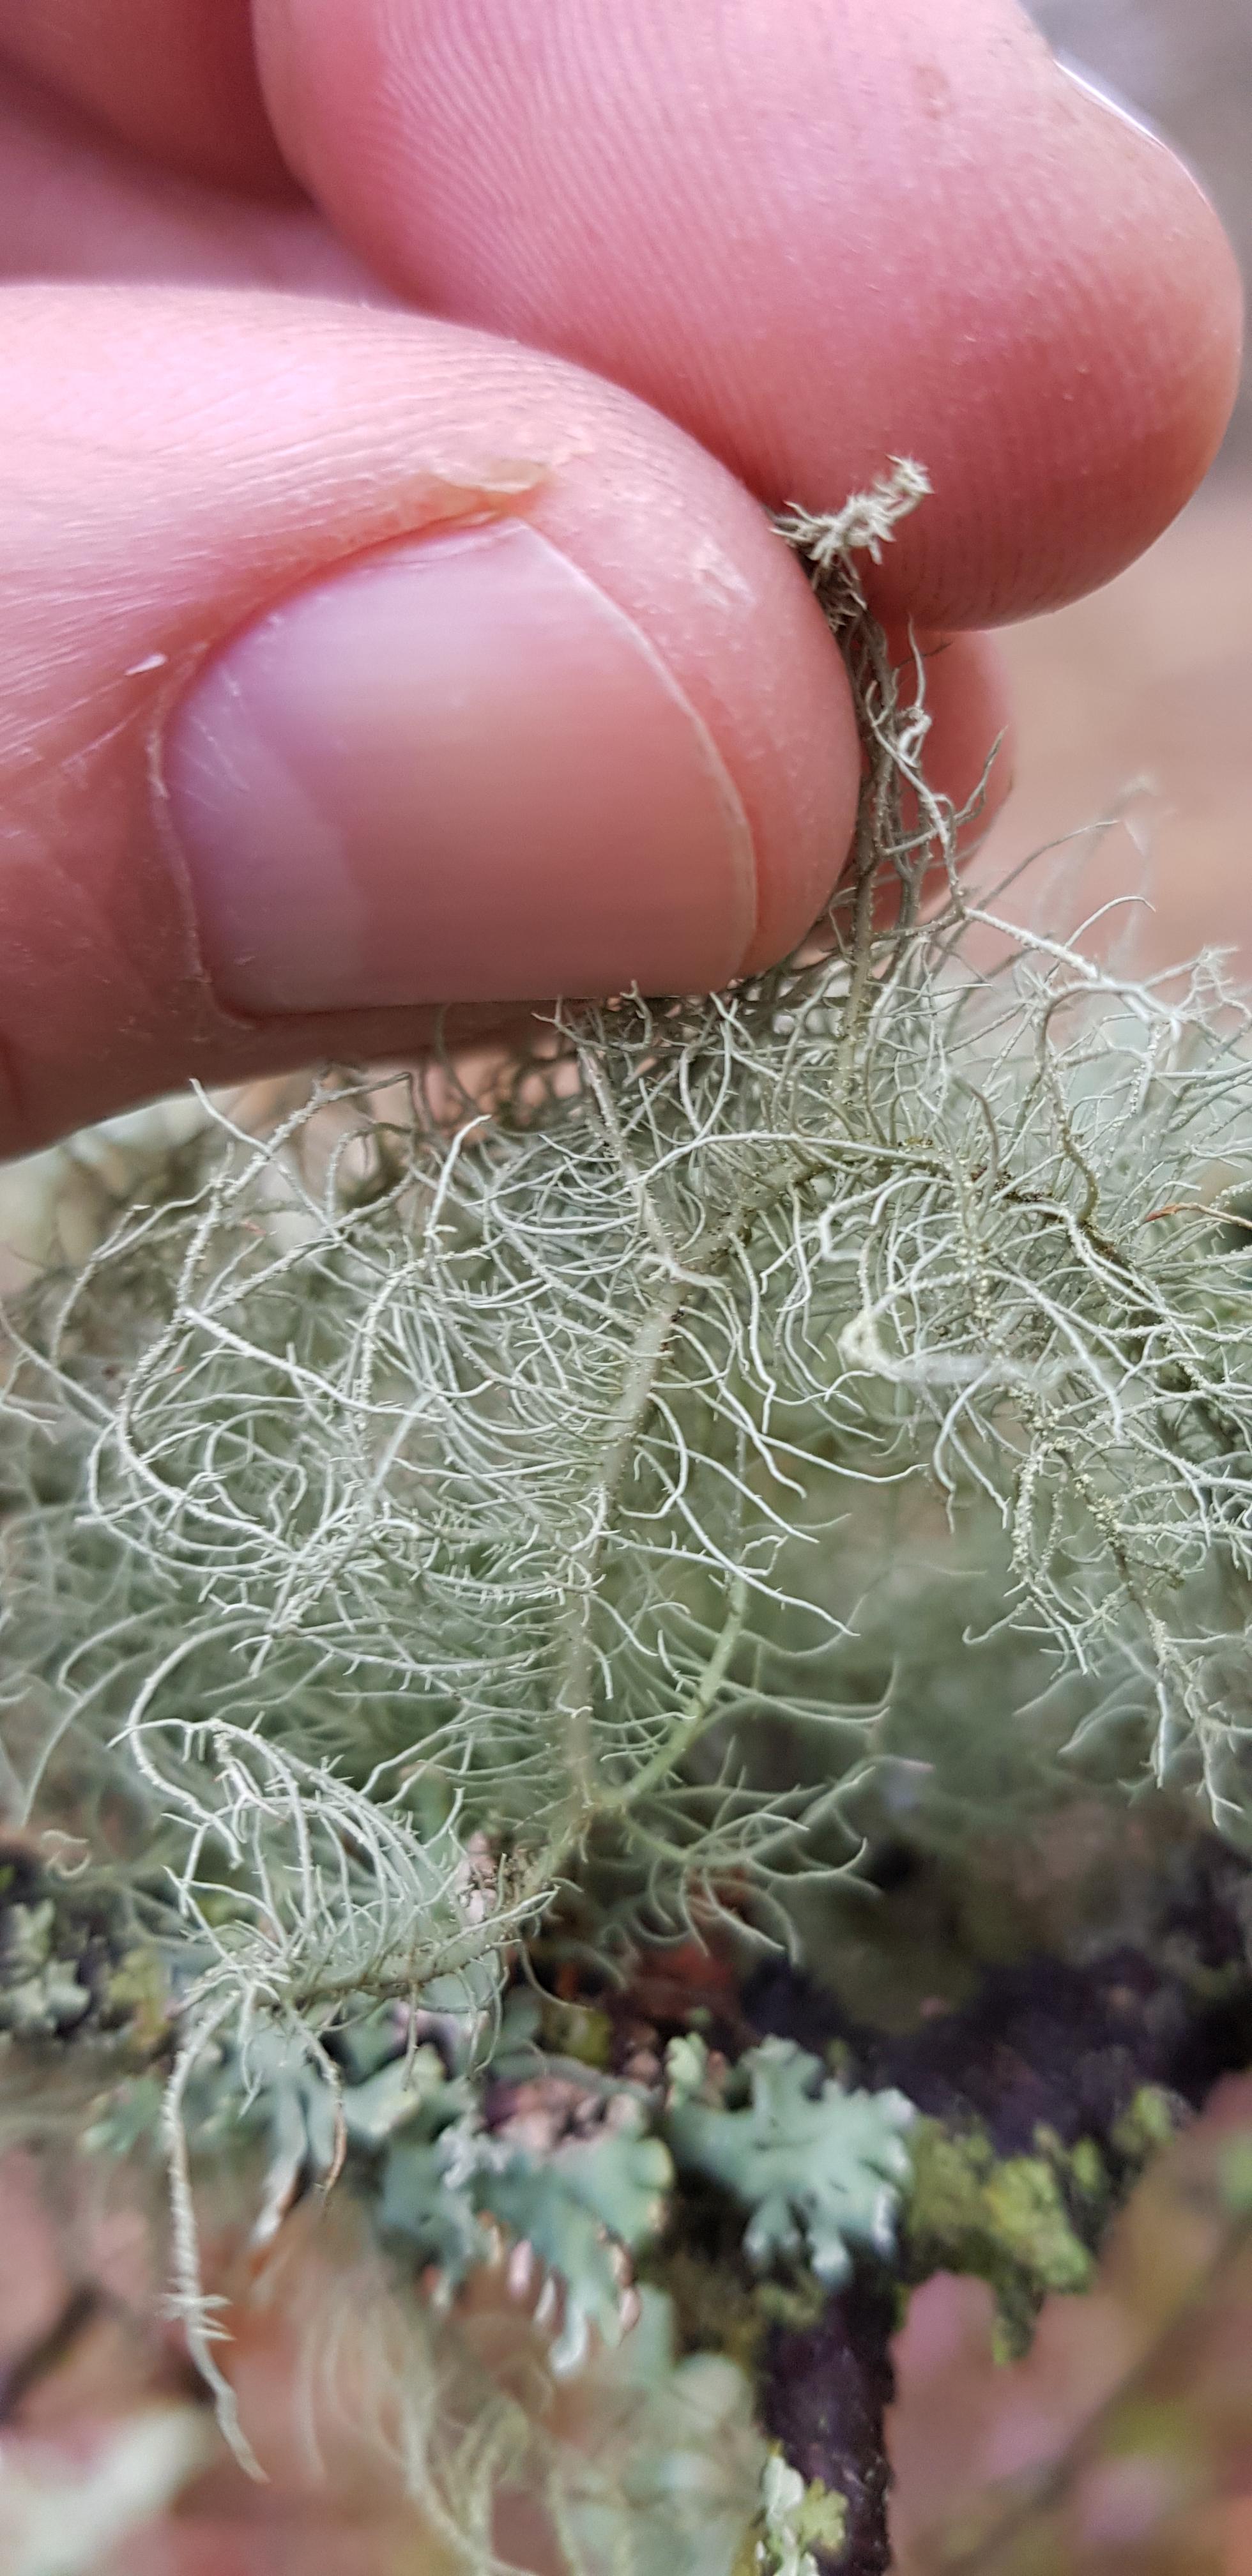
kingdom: Fungi
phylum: Ascomycota
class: Lecanoromycetes
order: Lecanorales
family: Parmeliaceae
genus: Usnea
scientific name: Usnea hirta
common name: liden skæglav
